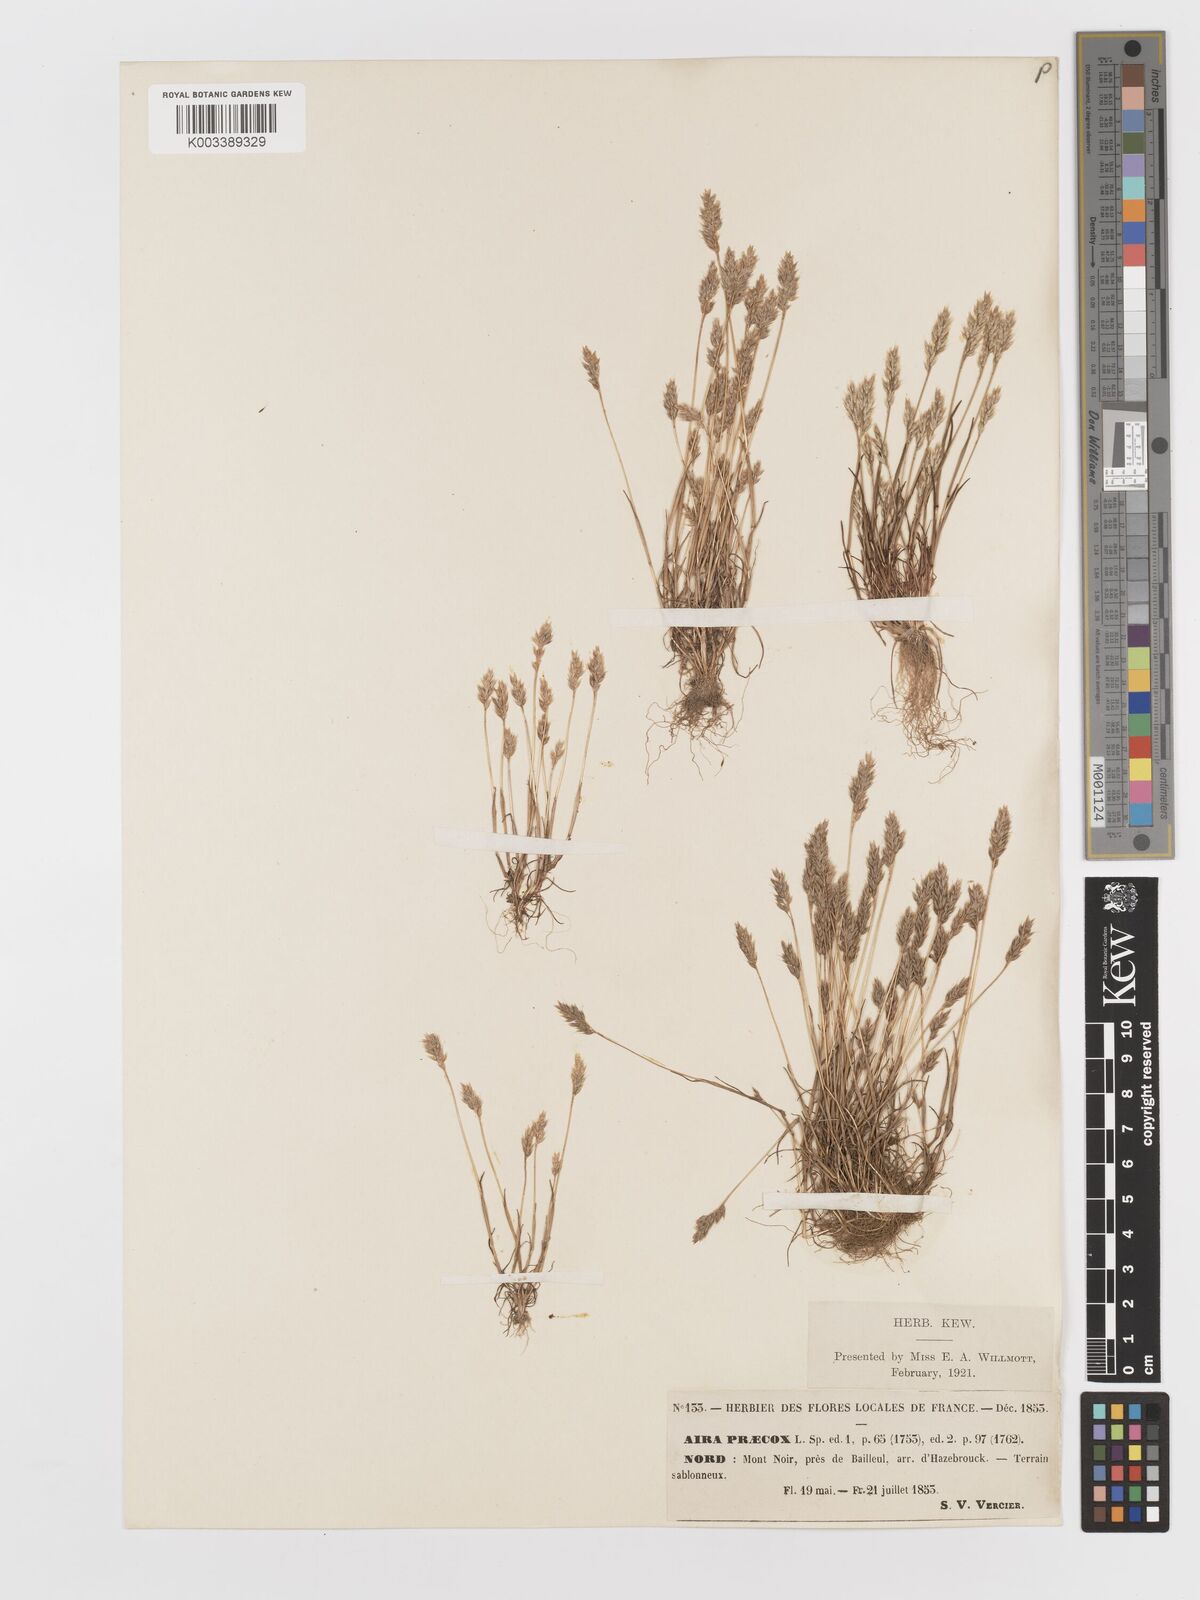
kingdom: Plantae
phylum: Tracheophyta
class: Liliopsida
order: Poales
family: Poaceae
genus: Aira
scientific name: Aira praecox
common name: Early hair-grass
